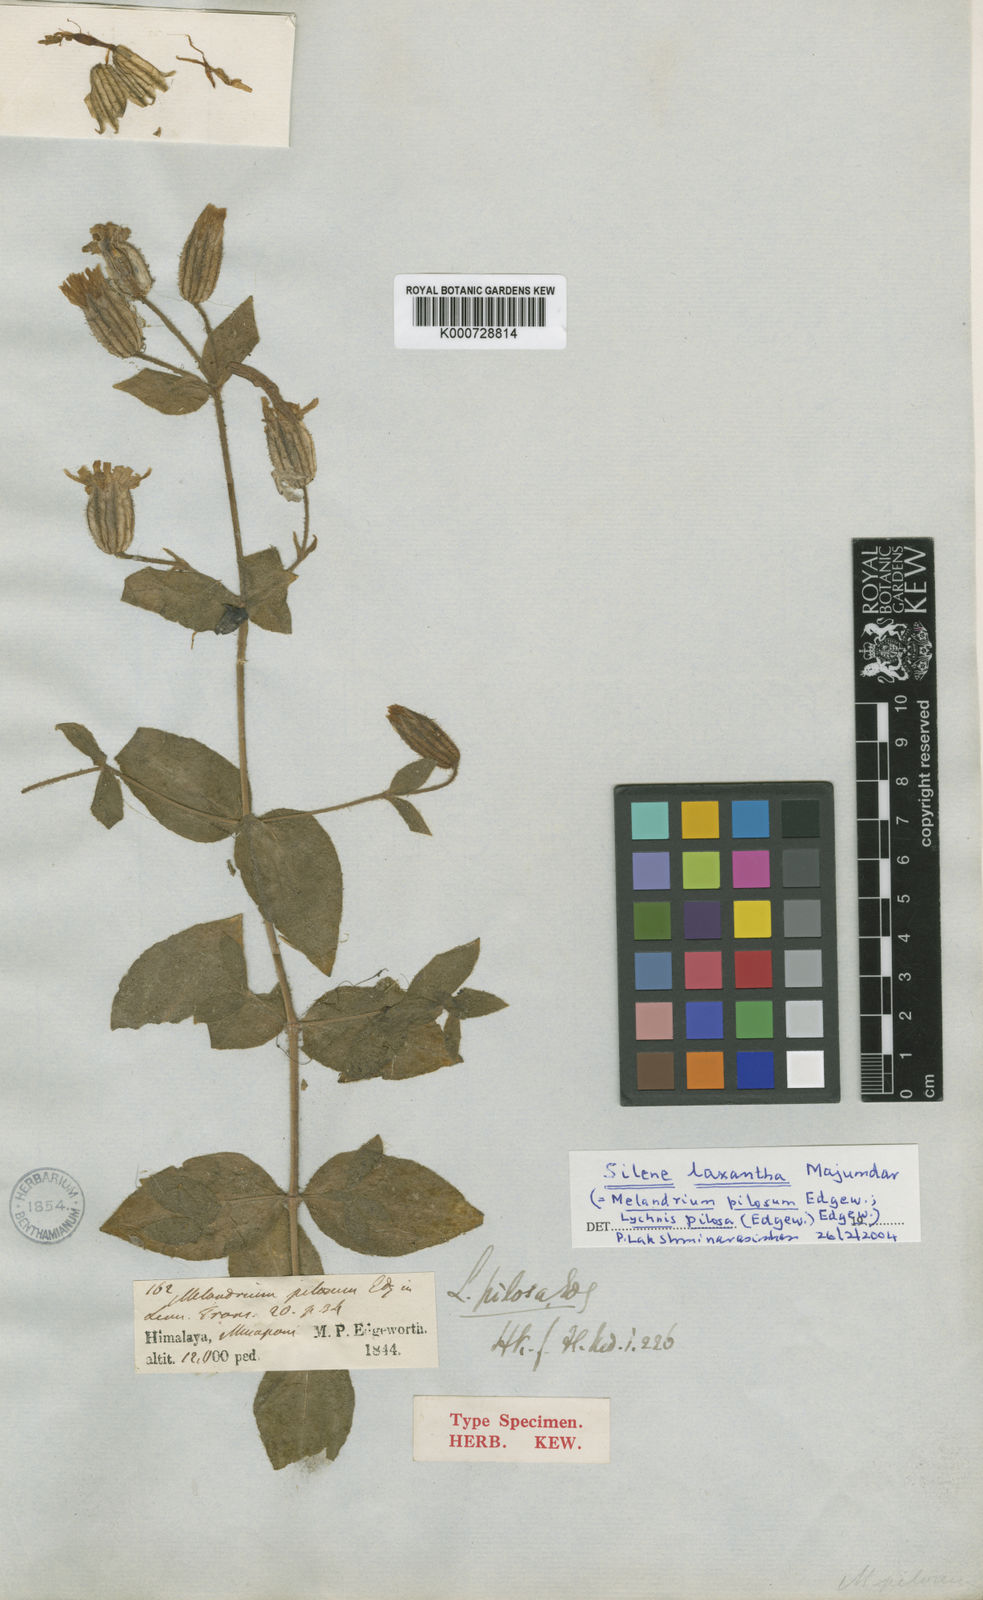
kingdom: Plantae
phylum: Tracheophyta
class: Magnoliopsida
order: Caryophyllales
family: Caryophyllaceae
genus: Silene
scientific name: Silene laxantha
